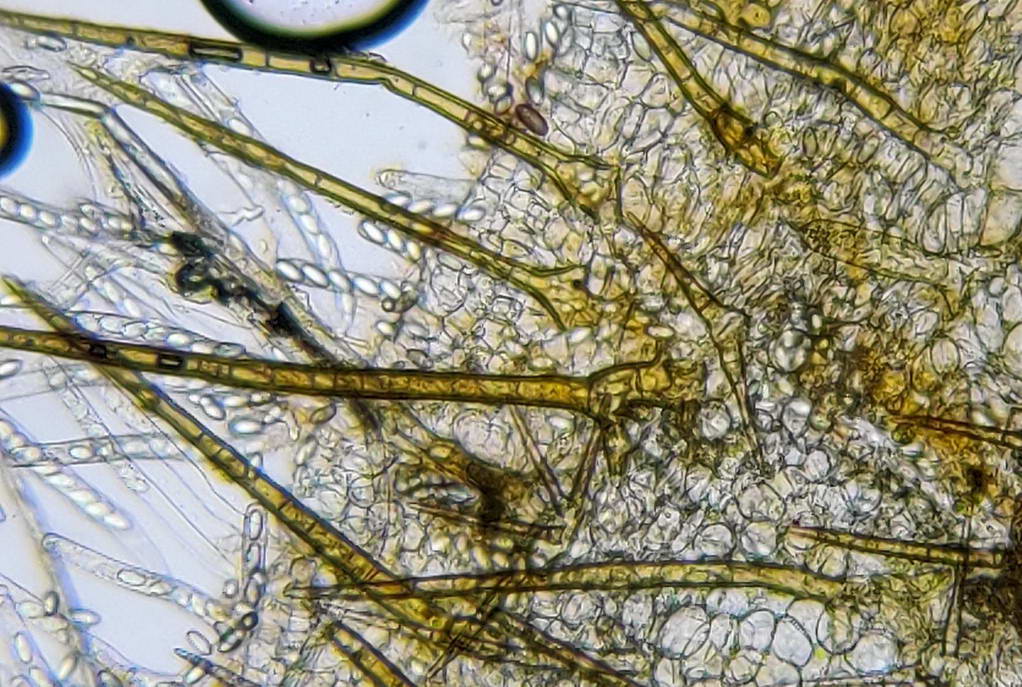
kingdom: Fungi
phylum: Ascomycota
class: Pezizomycetes
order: Pezizales
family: Pyronemataceae
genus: Cheilymenia
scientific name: Cheilymenia stercorea
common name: gødnings-hårbæger
